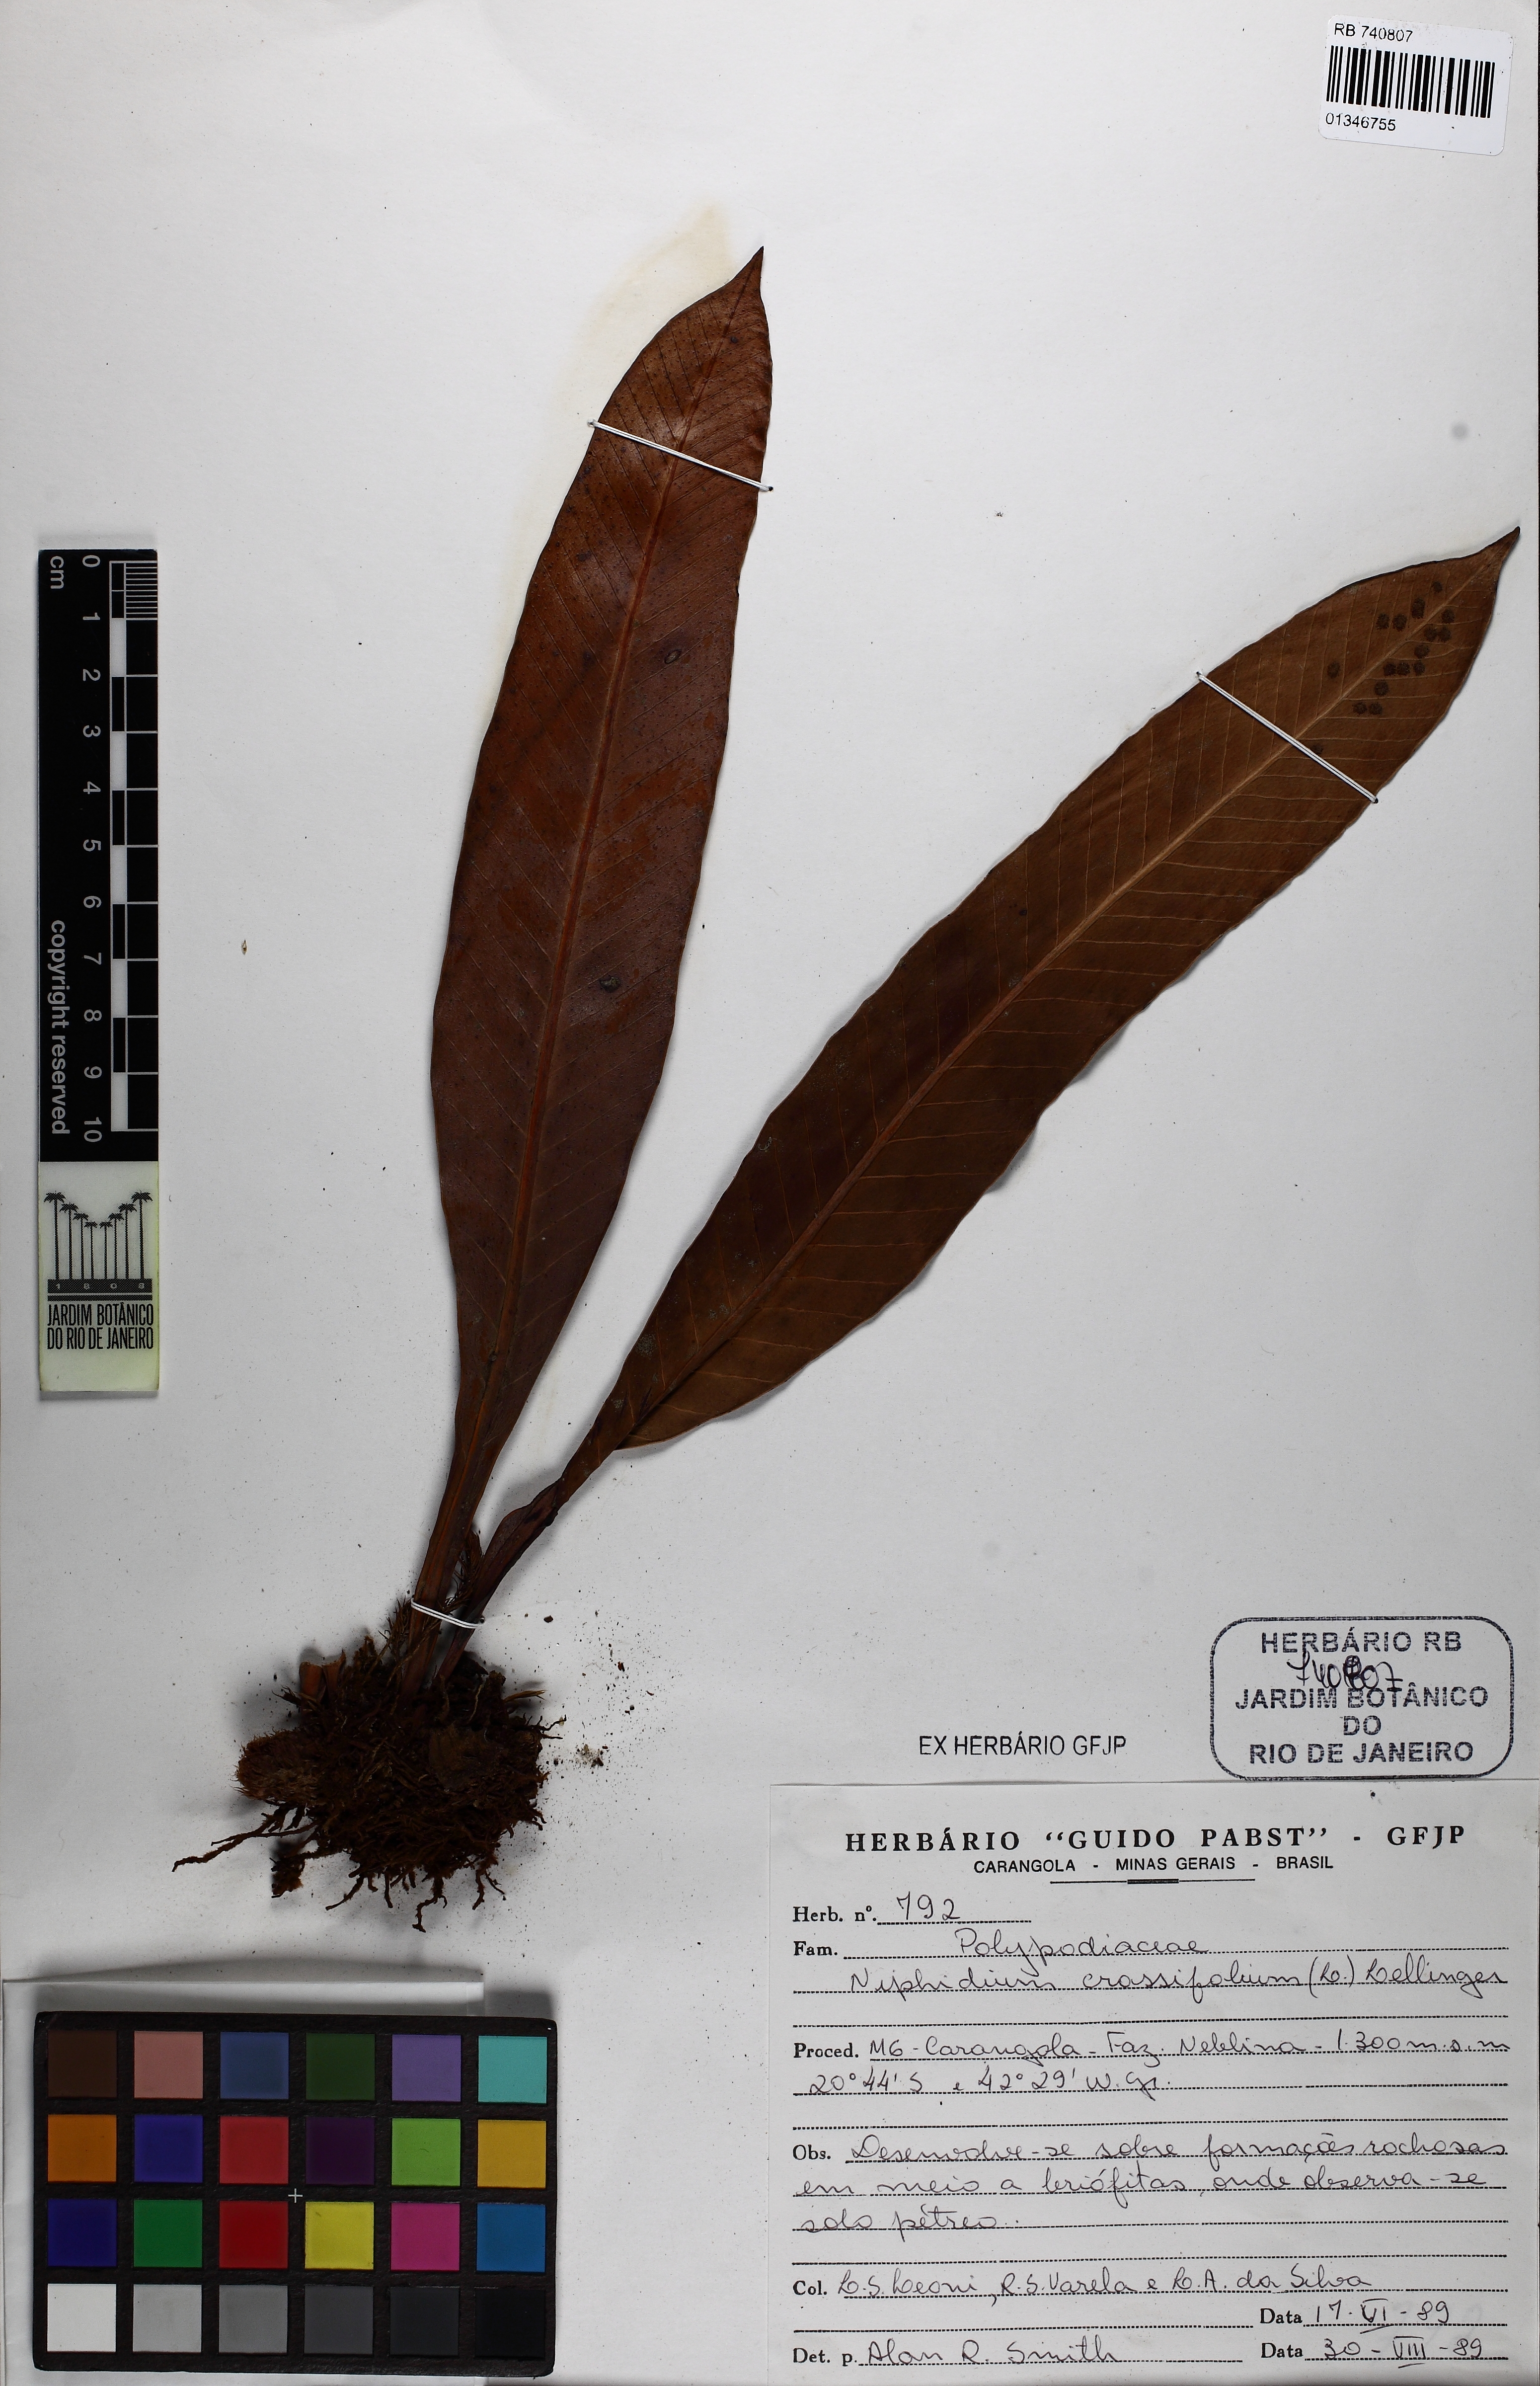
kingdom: Plantae
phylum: Tracheophyta
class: Polypodiopsida
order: Polypodiales
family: Polypodiaceae
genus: Niphidium
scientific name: Niphidium crassifolium
